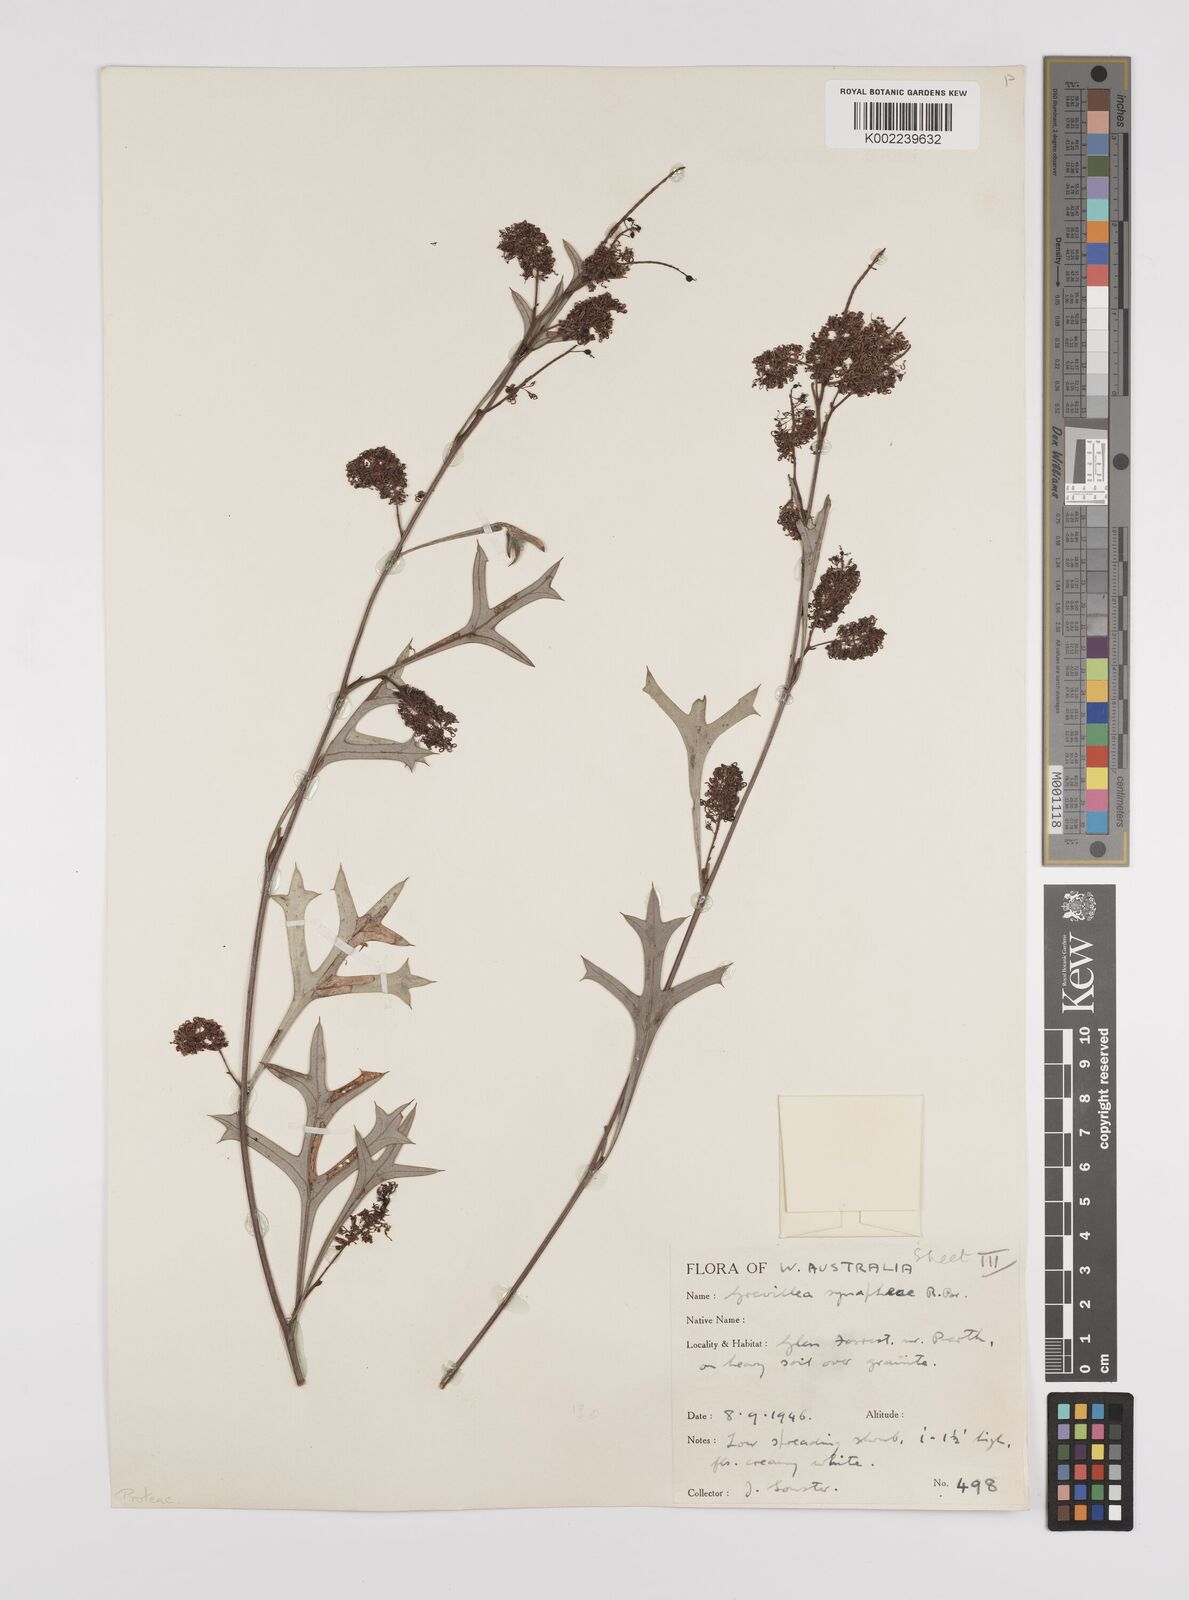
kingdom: Plantae
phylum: Tracheophyta
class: Magnoliopsida
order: Proteales
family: Proteaceae
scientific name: Proteaceae
